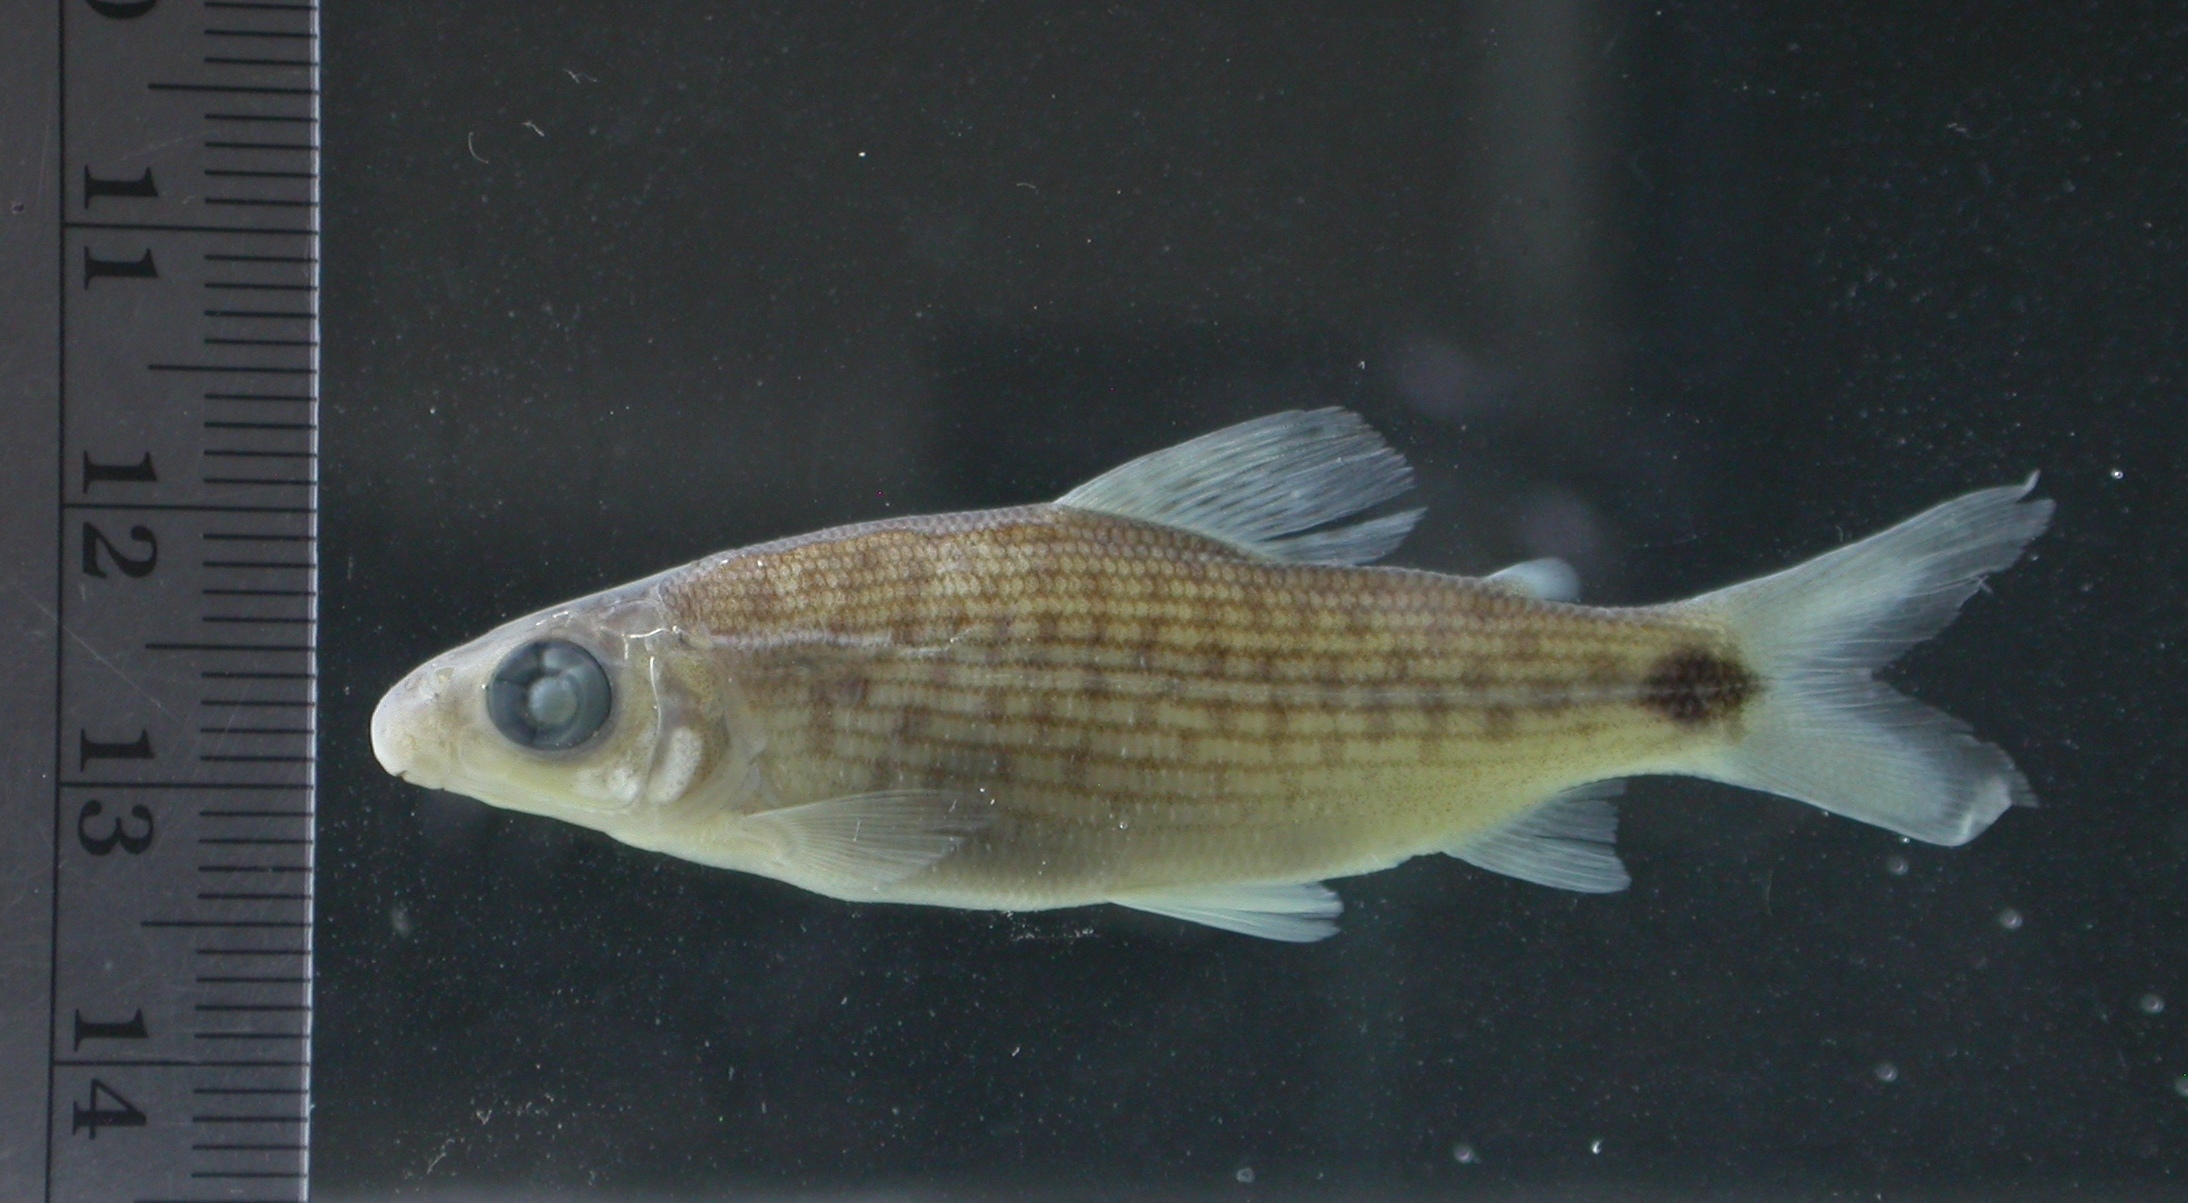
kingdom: Animalia
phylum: Chordata
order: Characiformes
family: Distichodontidae
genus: Distichodus
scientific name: Distichodus maculatus
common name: Spotted citharinid
